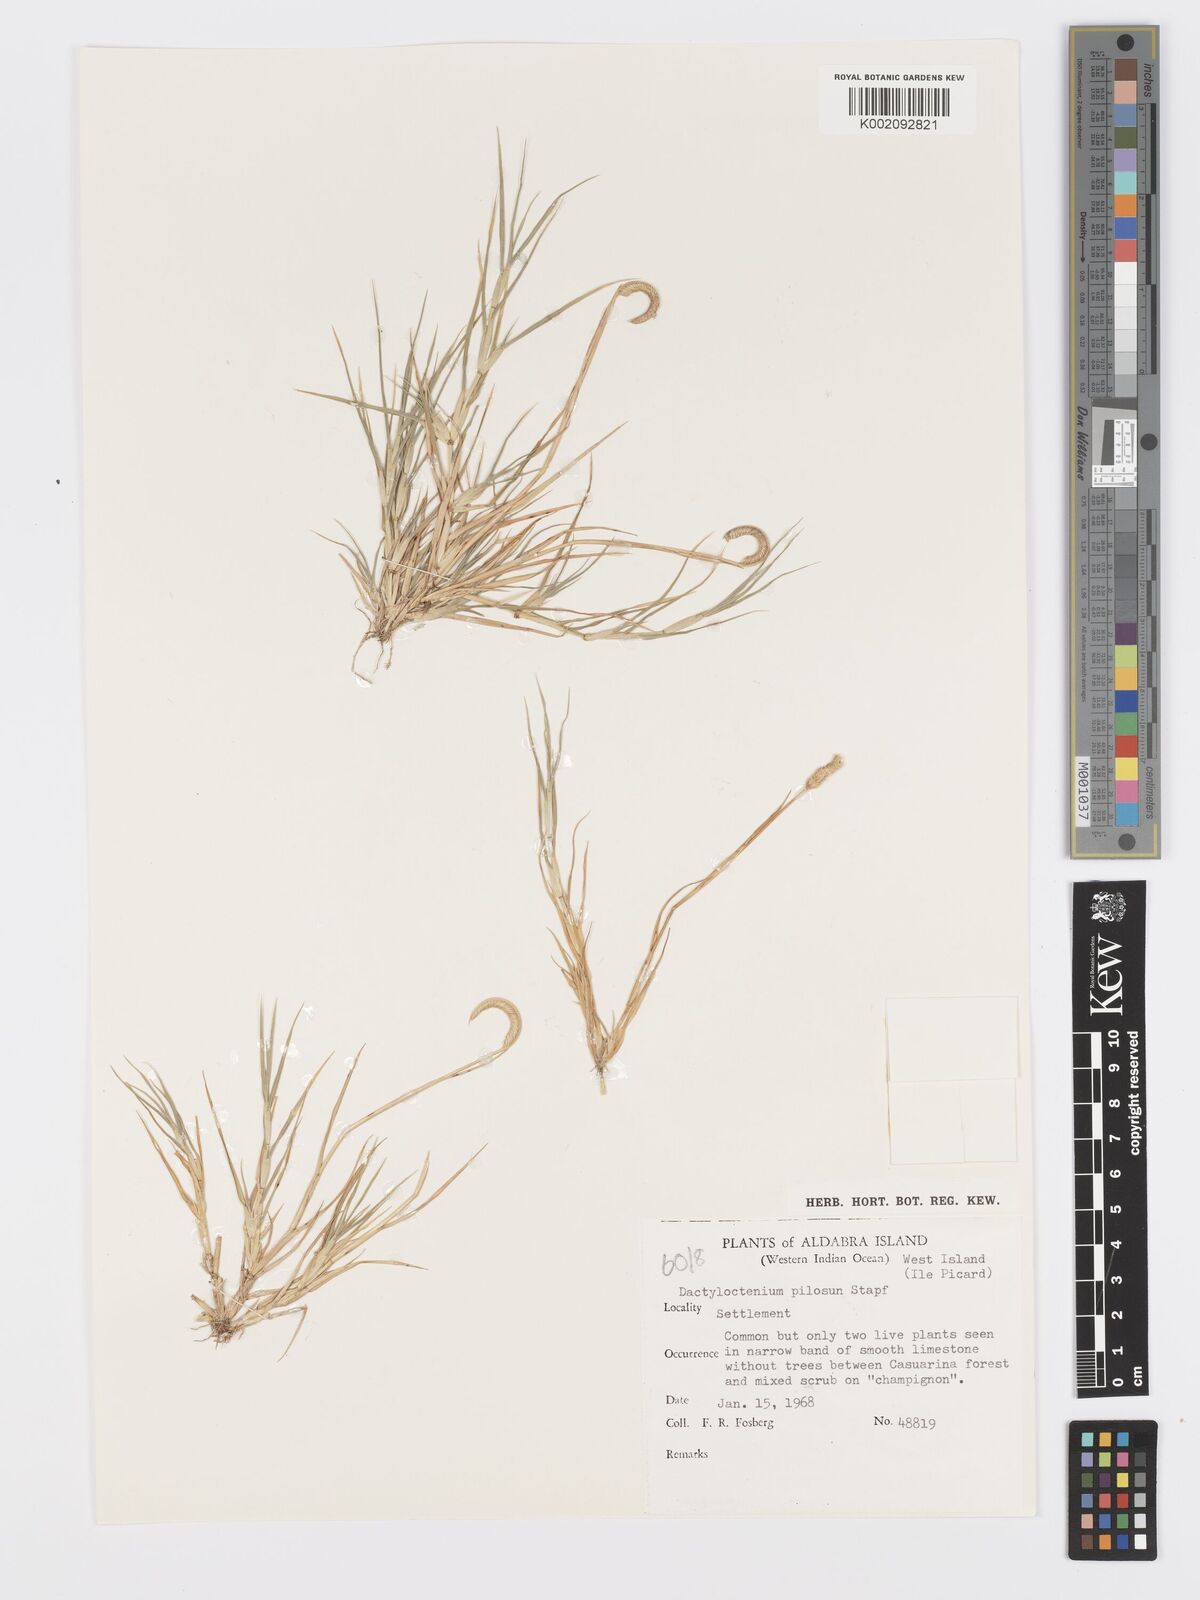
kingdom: Plantae
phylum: Tracheophyta
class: Liliopsida
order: Poales
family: Poaceae
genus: Dactyloctenium
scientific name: Dactyloctenium pilosum
